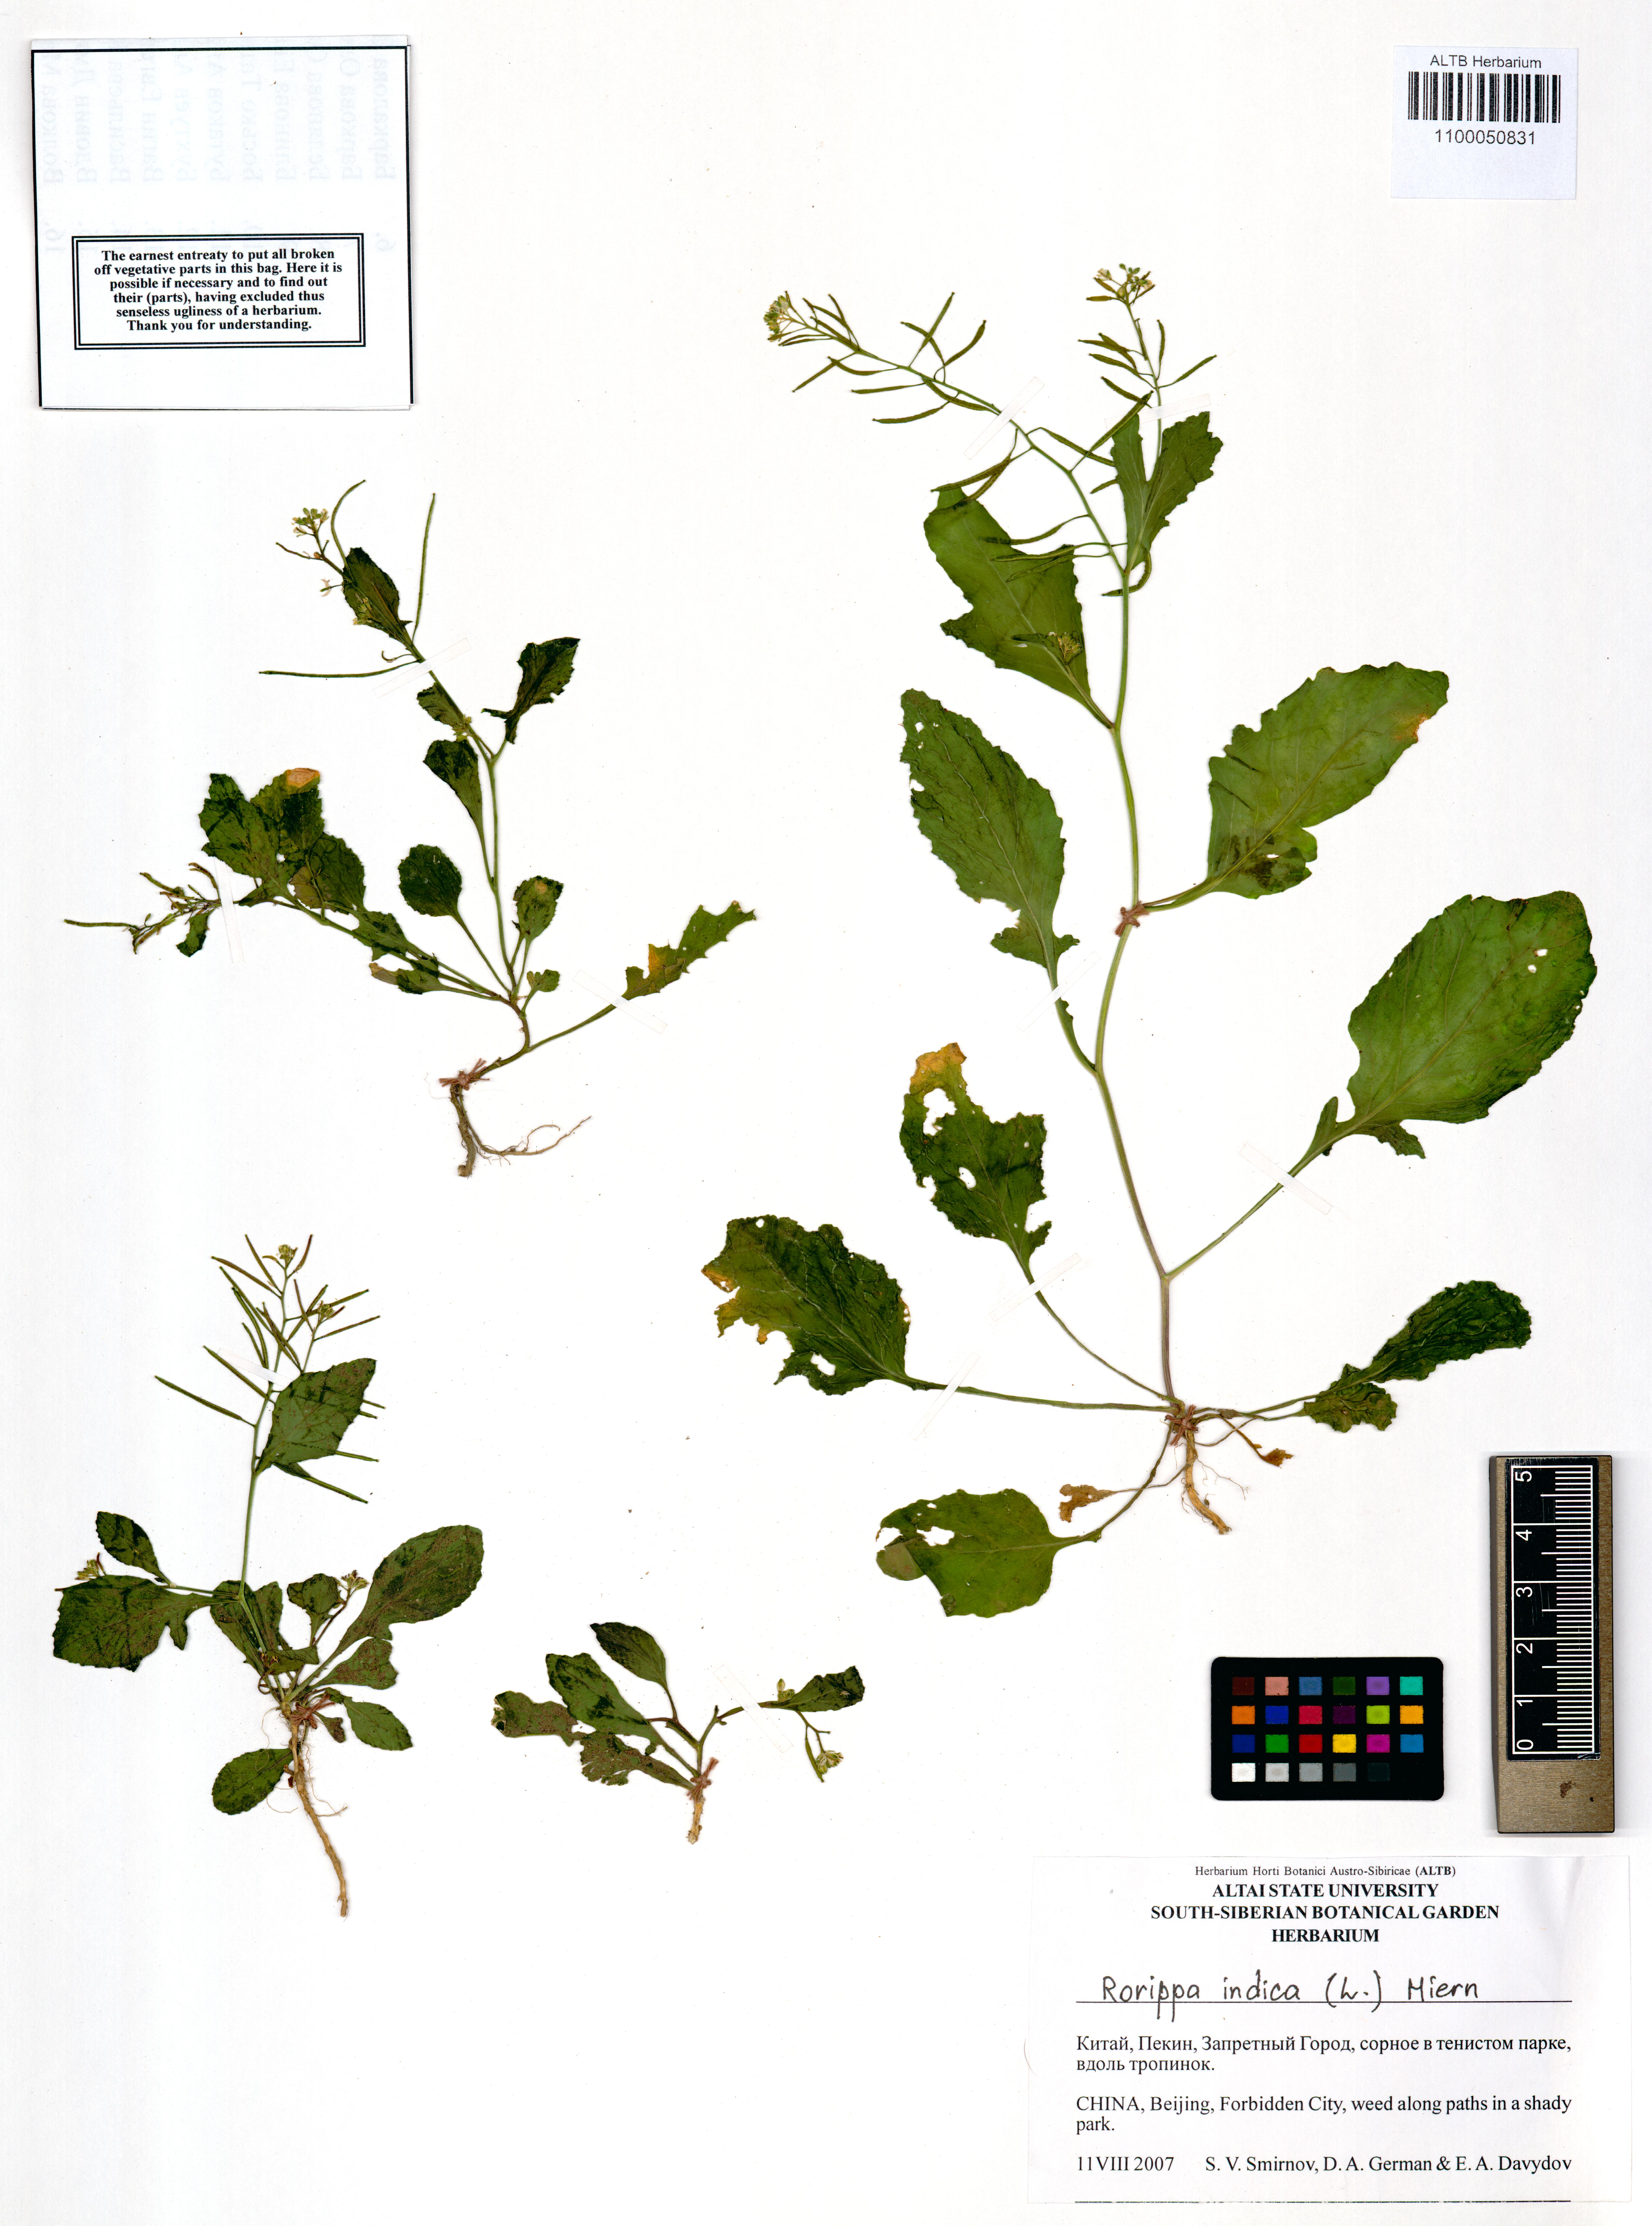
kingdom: Plantae
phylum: Tracheophyta
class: Magnoliopsida
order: Brassicales
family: Brassicaceae
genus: Rorippa
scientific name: Rorippa indica
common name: Variableleaf yellowcress
